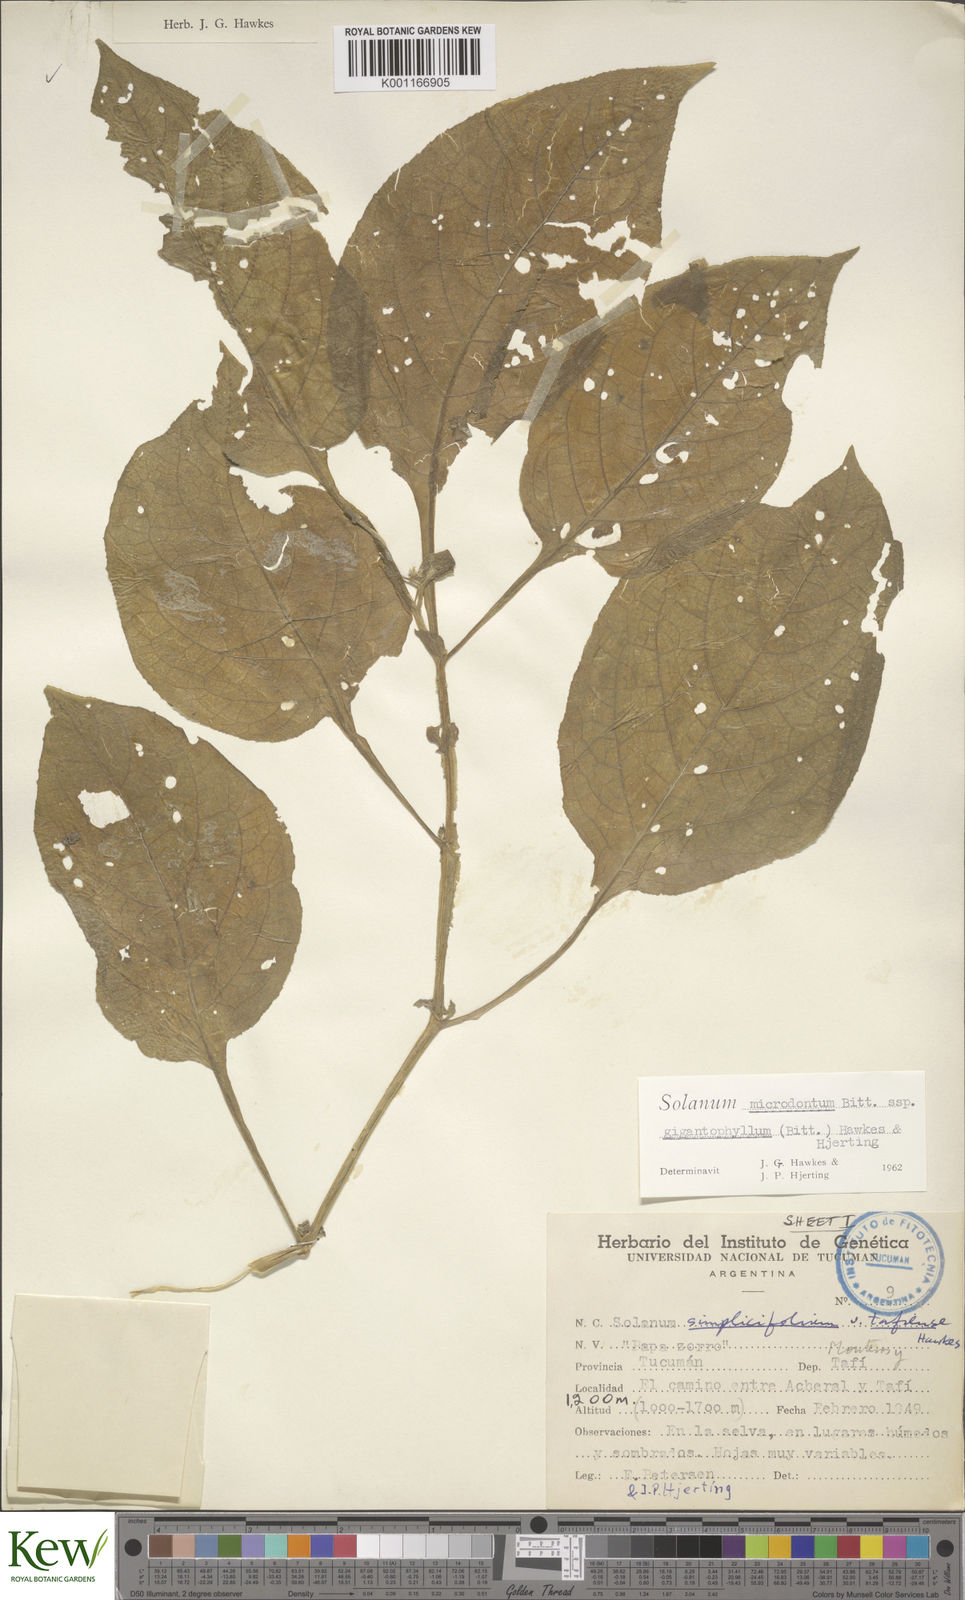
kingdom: Plantae
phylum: Tracheophyta
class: Magnoliopsida
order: Solanales
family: Solanaceae
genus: Solanum
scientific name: Solanum microdontum
